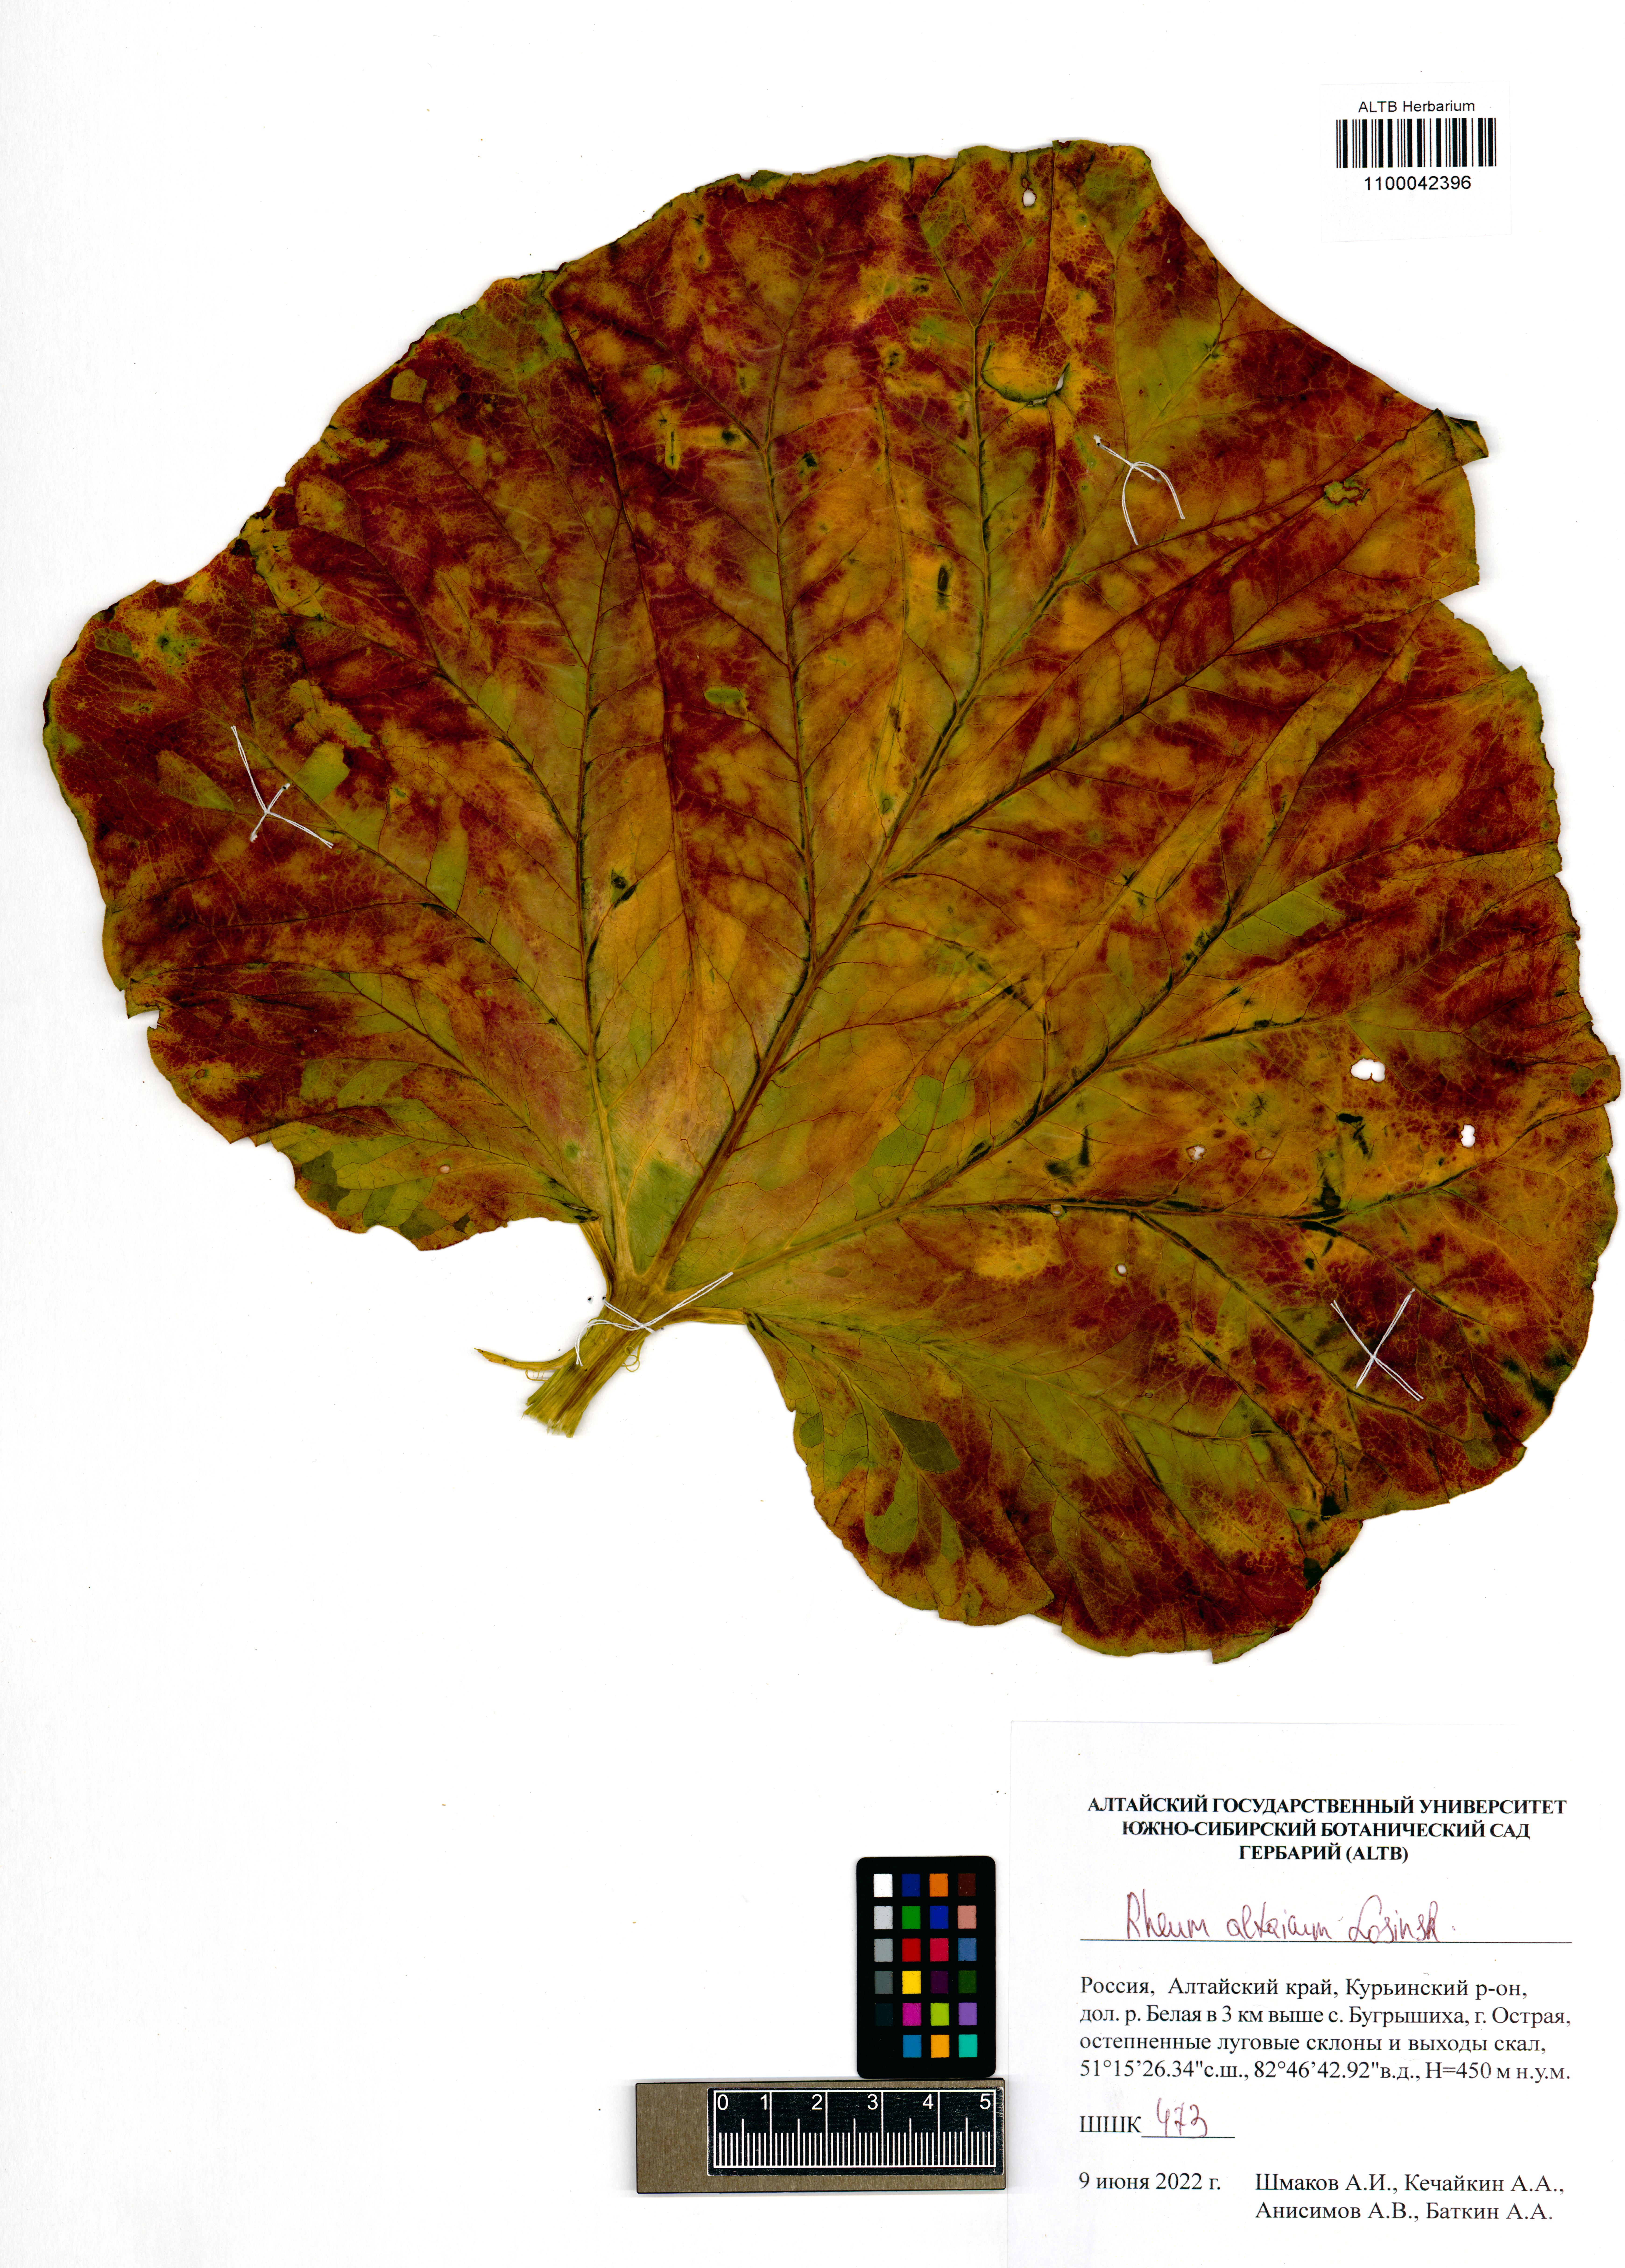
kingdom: Plantae
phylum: Tracheophyta
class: Magnoliopsida
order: Caryophyllales
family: Polygonaceae
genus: Rheum
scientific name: Rheum compactum
